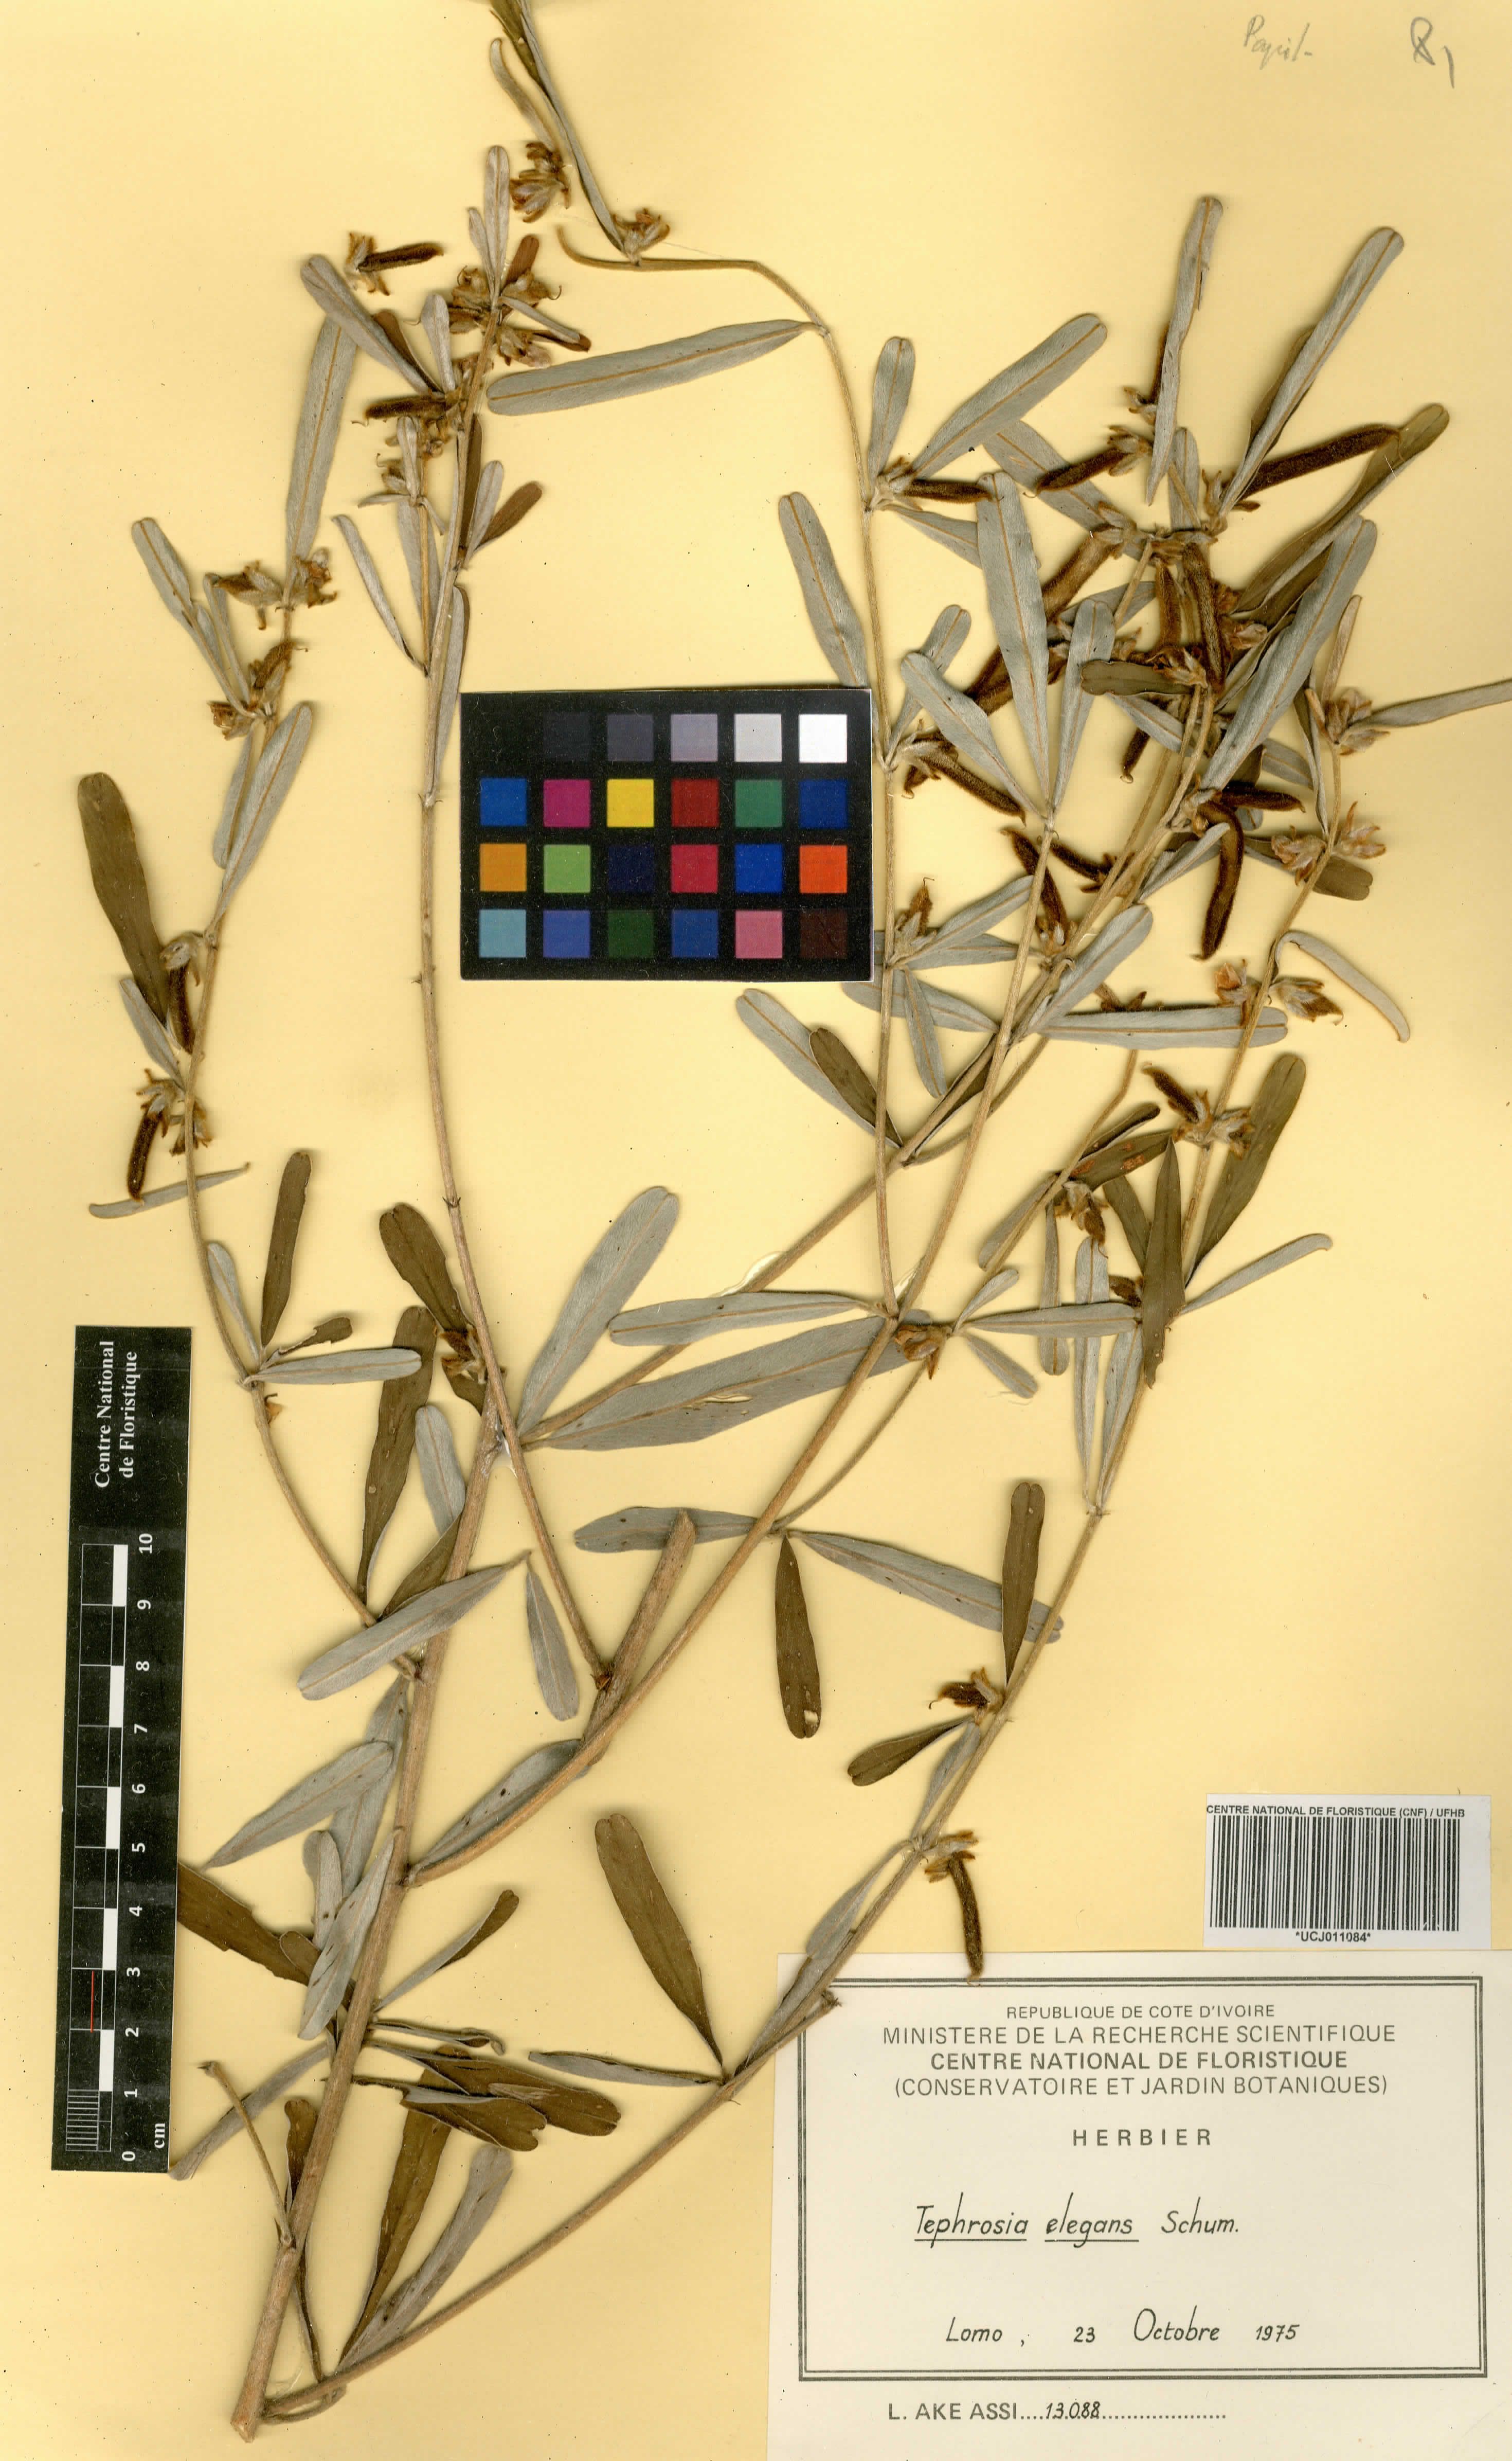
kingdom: Plantae
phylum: Tracheophyta
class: Magnoliopsida
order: Fabales
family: Fabaceae
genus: Tephrosia
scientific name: Tephrosia elegans
